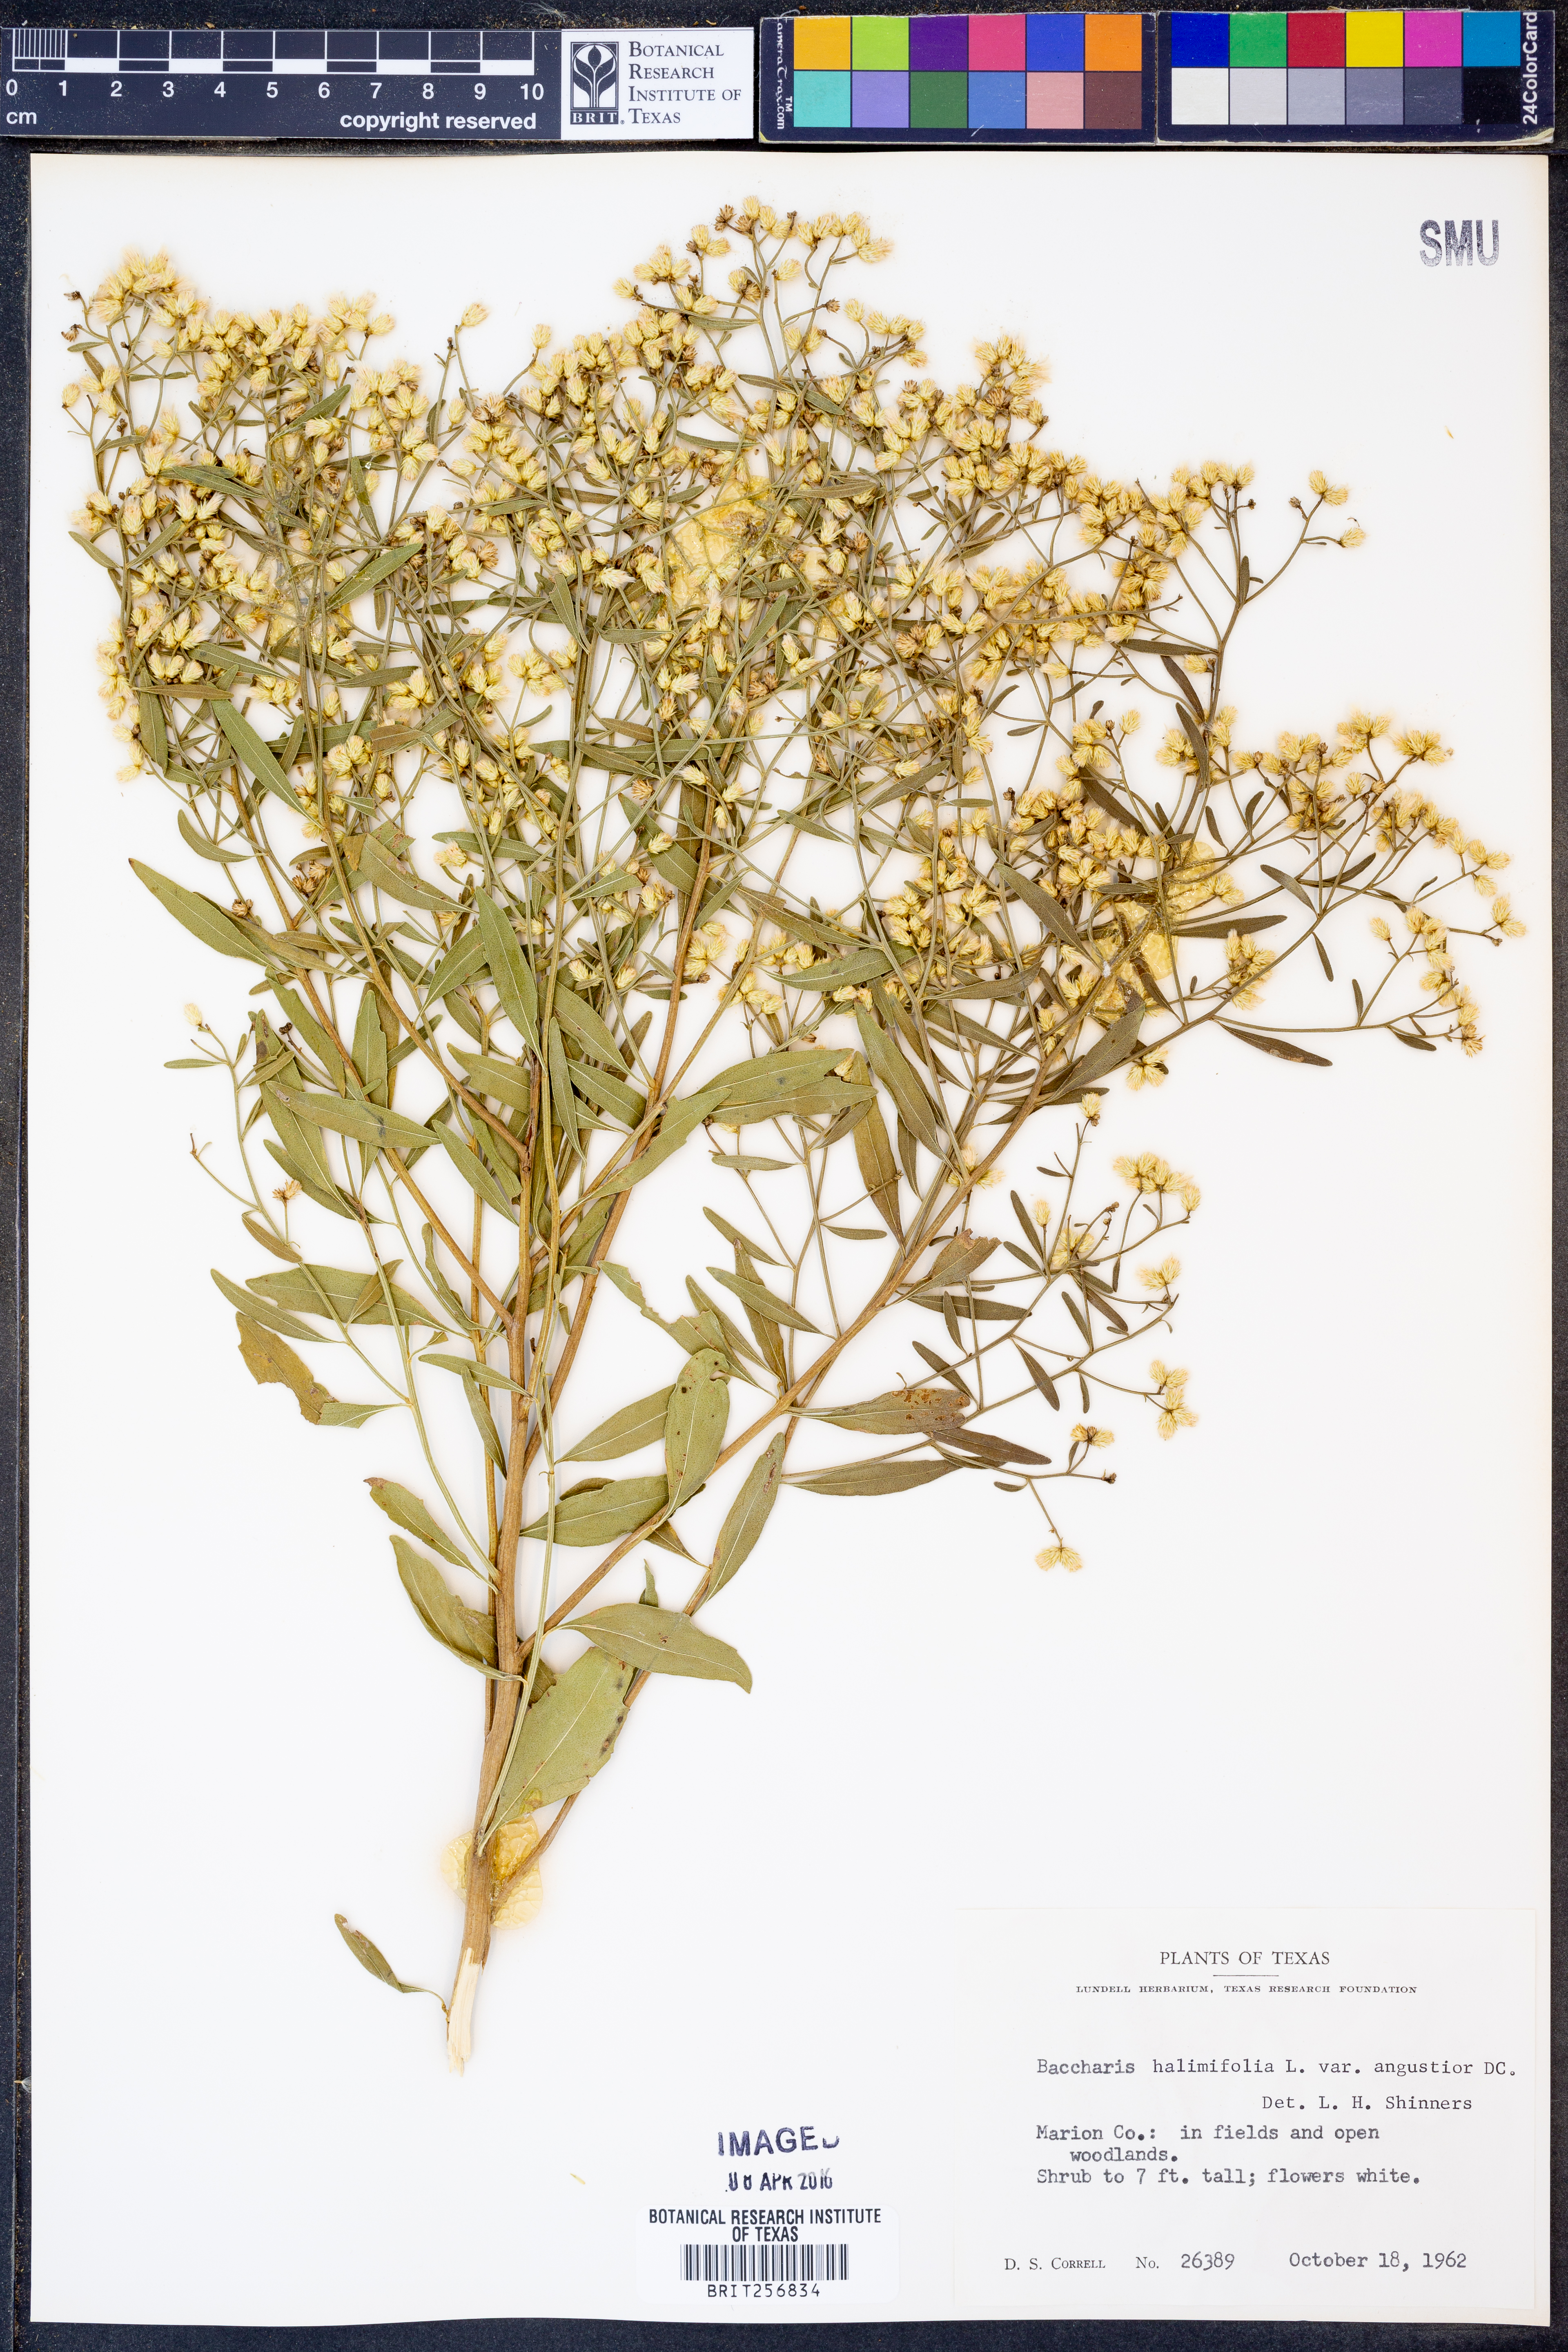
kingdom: Plantae
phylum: Tracheophyta
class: Magnoliopsida
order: Asterales
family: Asteraceae
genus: Baccharis
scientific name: Baccharis halimifolia
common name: Eastern baccharis
